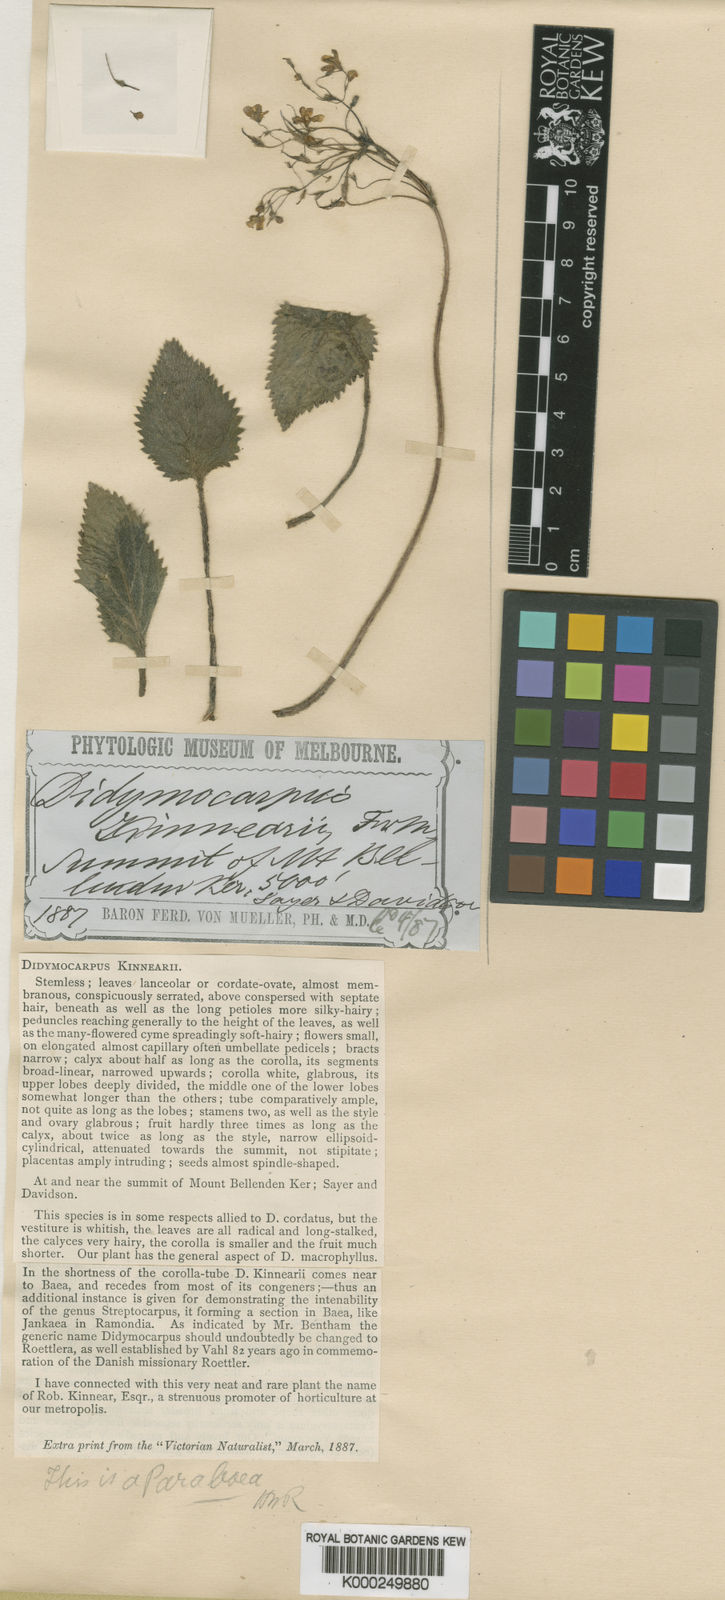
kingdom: Plantae
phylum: Tracheophyta
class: Magnoliopsida
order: Lamiales
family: Gesneriaceae
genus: Boea
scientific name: Boea kinnearii
